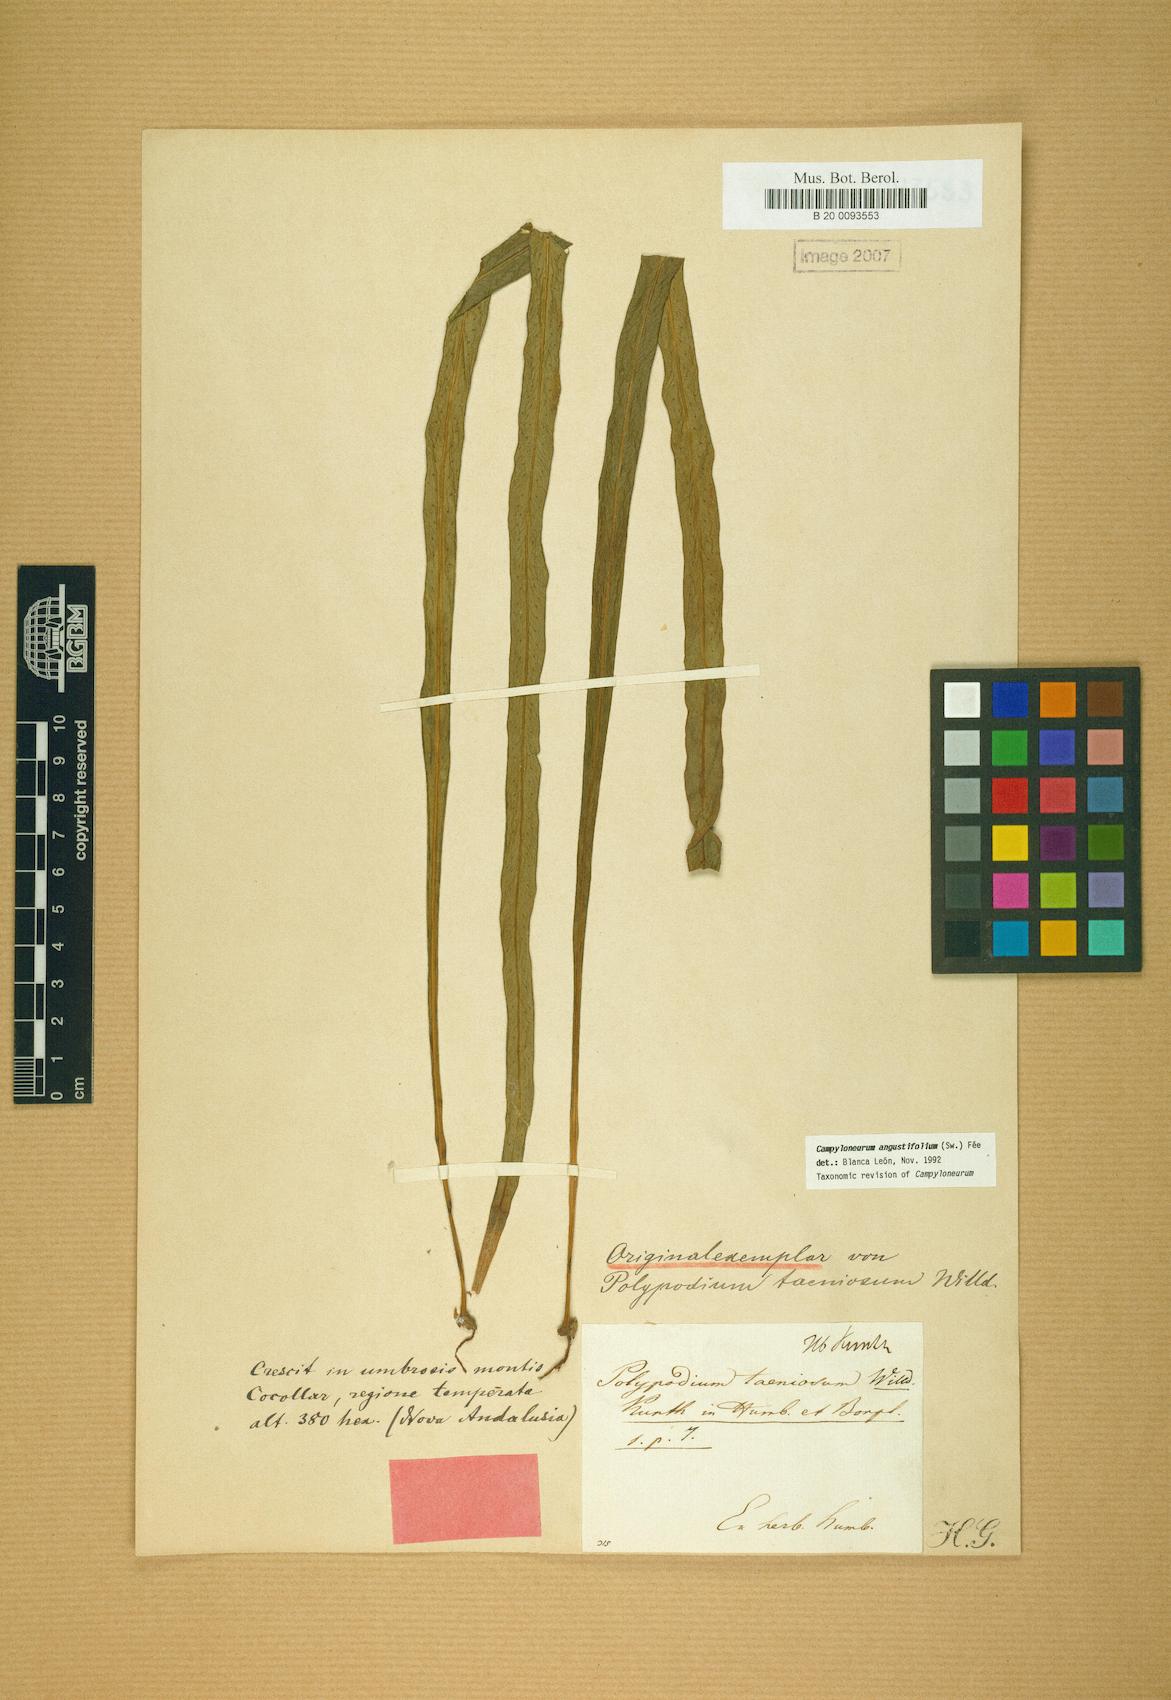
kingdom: Plantae
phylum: Tracheophyta
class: Polypodiopsida
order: Polypodiales
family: Polypodiaceae
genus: Campyloneurum
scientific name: Campyloneurum angustifolium
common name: Narrow-leaf strap fern
